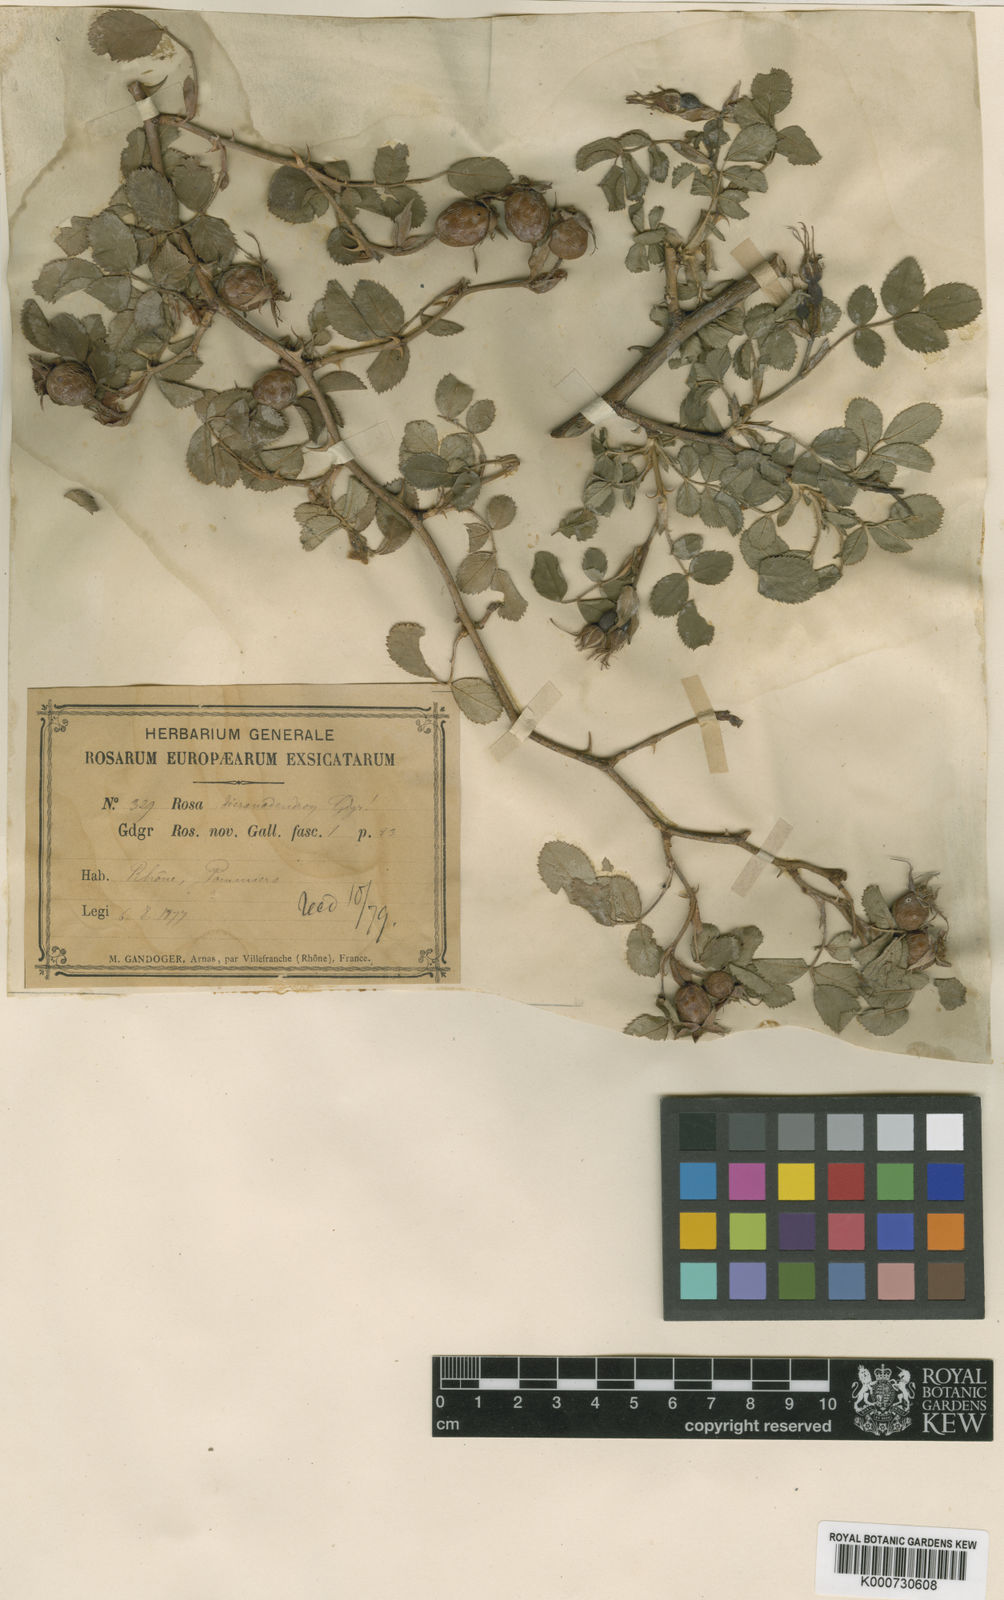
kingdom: Plantae
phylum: Tracheophyta
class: Magnoliopsida
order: Rosales
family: Rosaceae
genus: Rosa
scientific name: Rosa rubiginosa
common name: Sweet-briar
